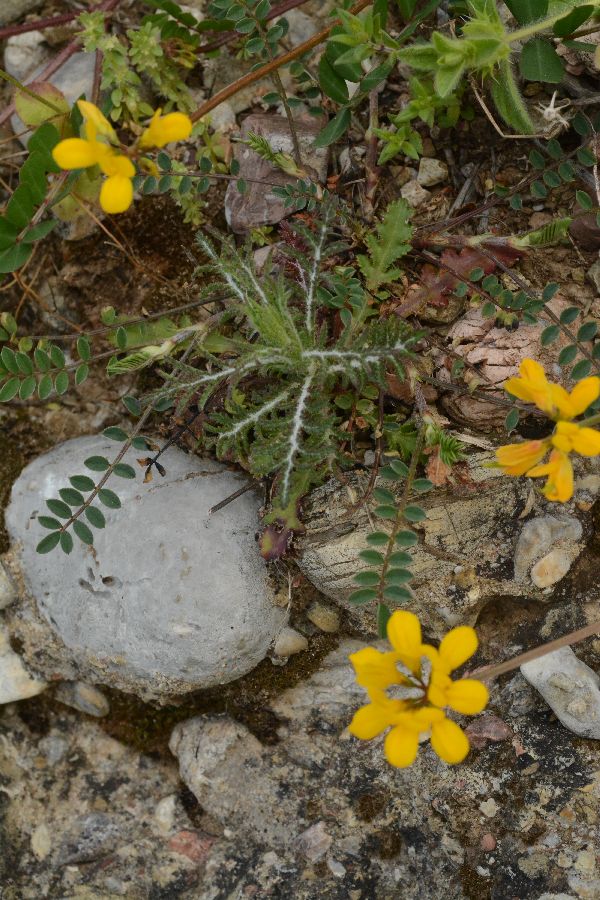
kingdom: Plantae
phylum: Tracheophyta
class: Magnoliopsida
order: Fabales
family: Fabaceae
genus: Coronilla
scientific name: Coronilla valentina
